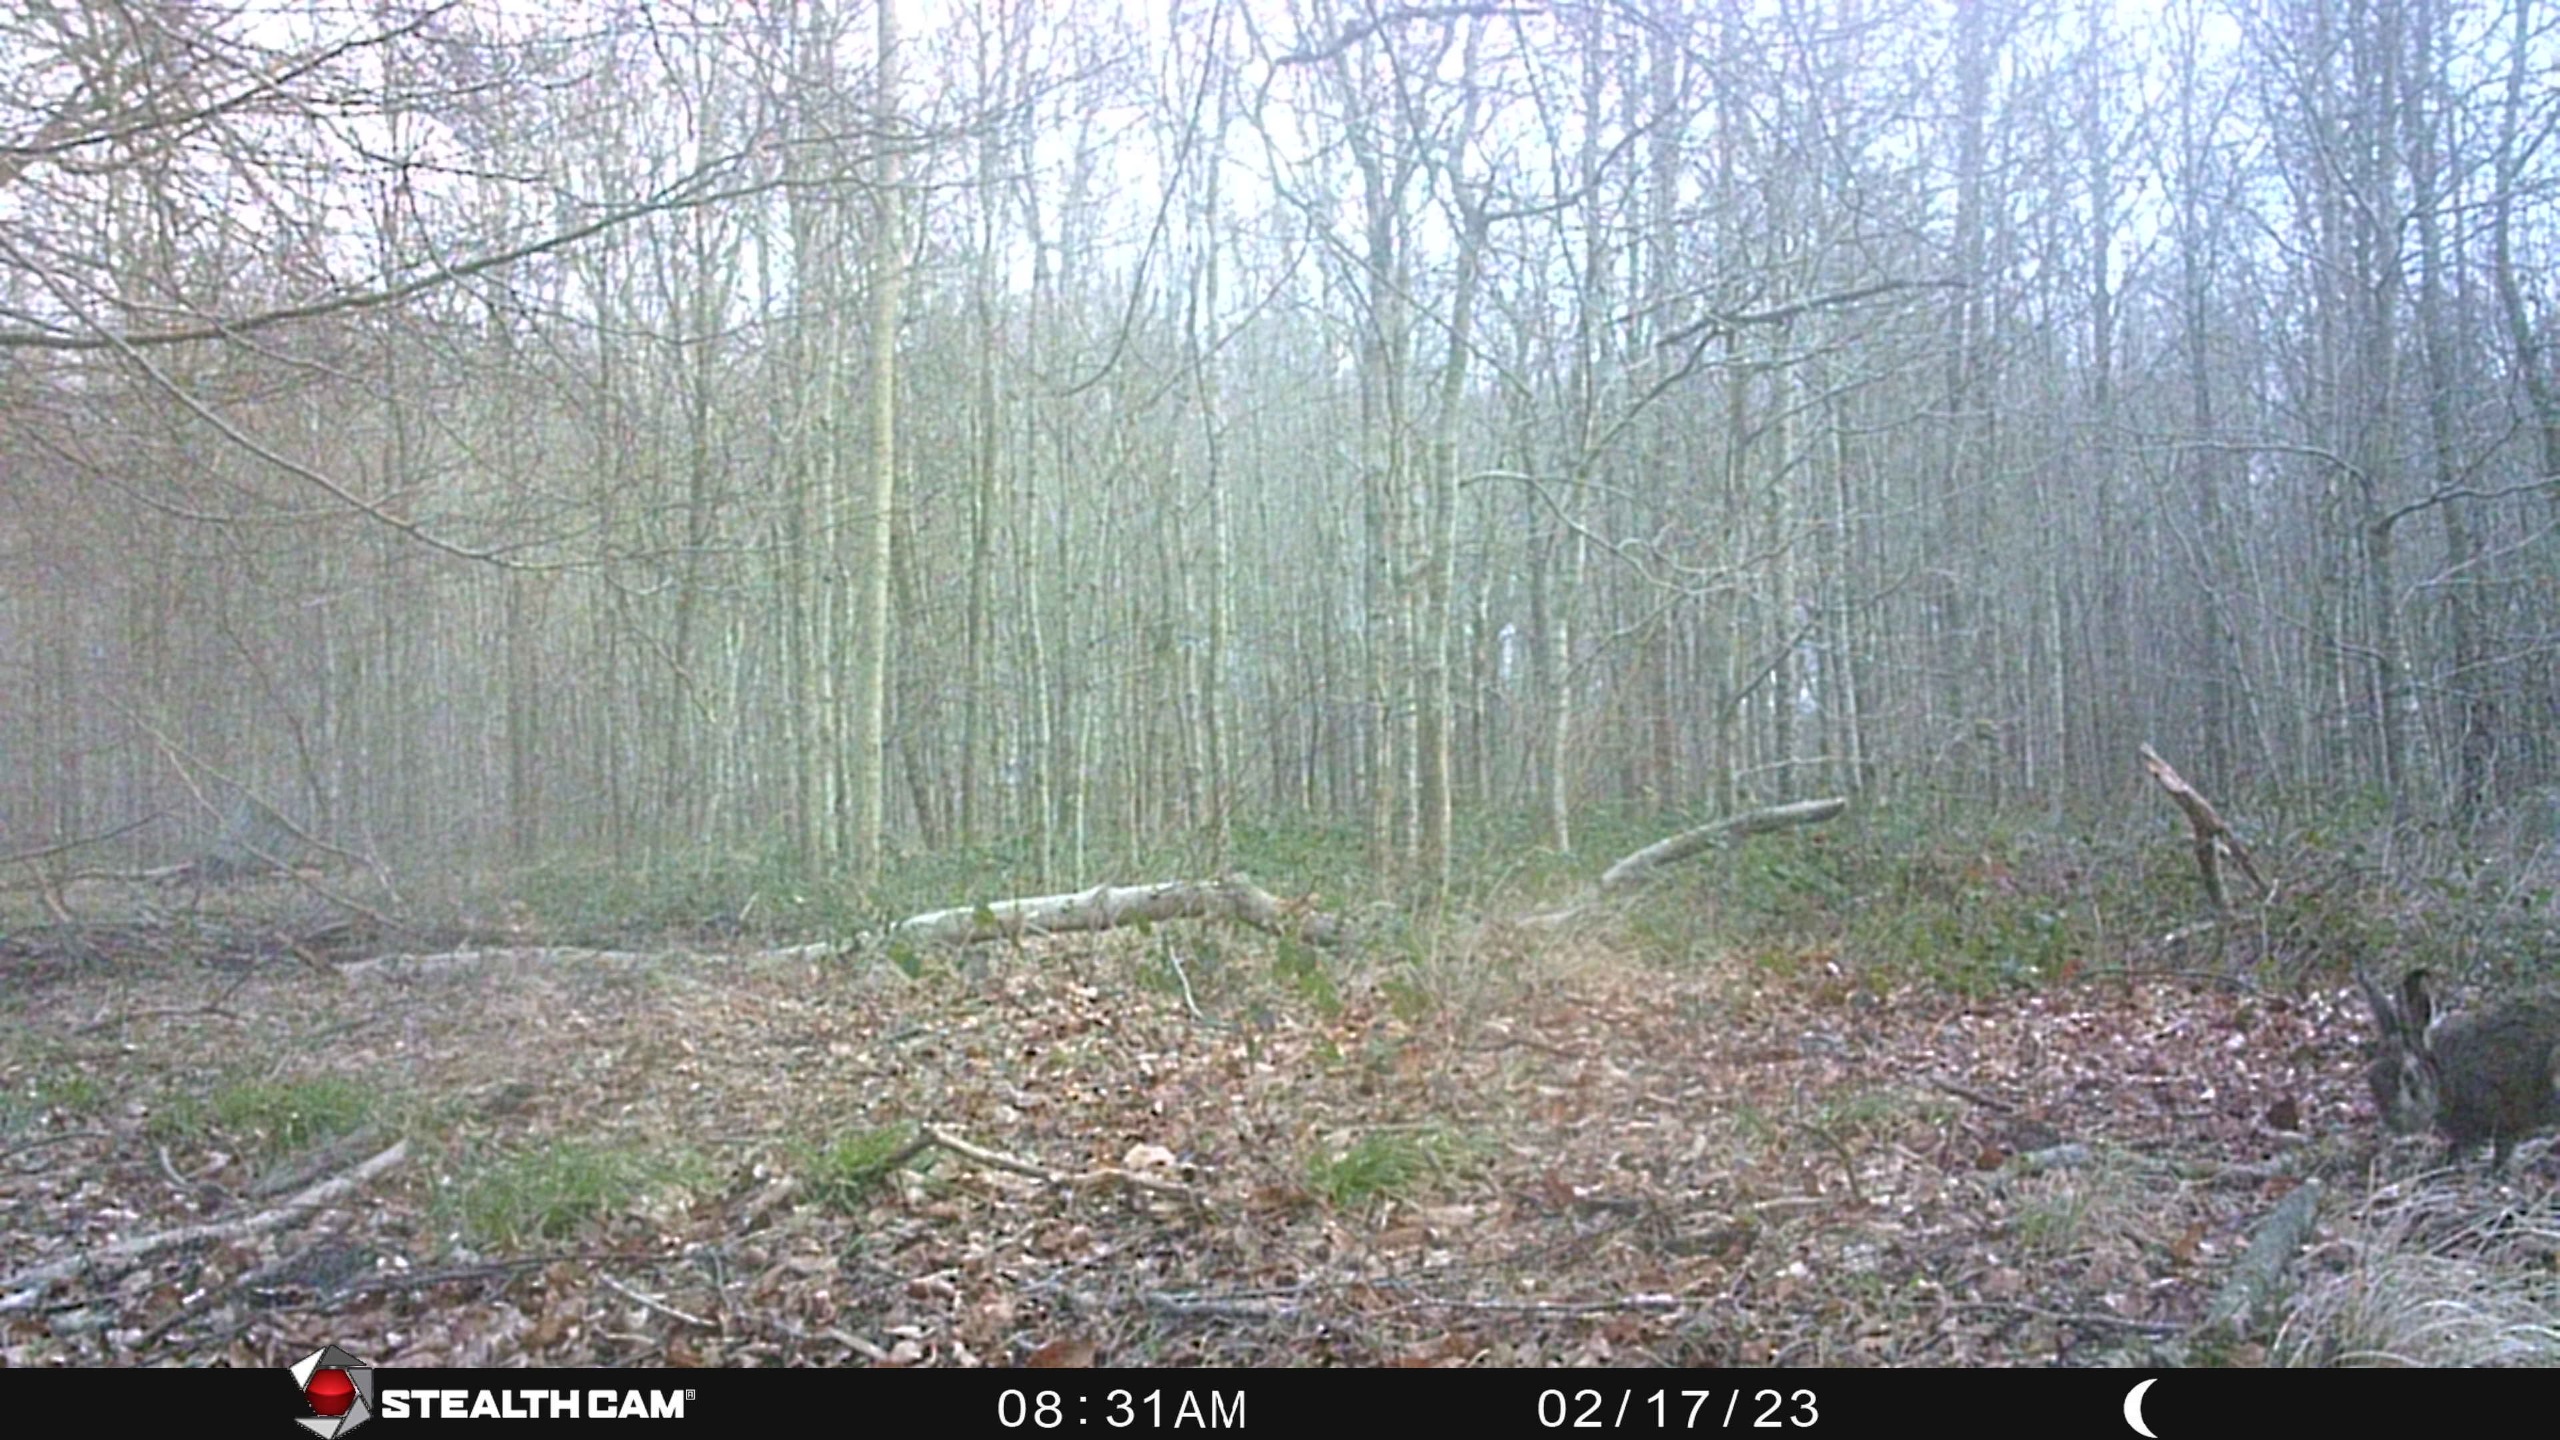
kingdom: Animalia
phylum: Chordata
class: Mammalia
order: Lagomorpha
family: Leporidae
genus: Lepus
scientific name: Lepus europaeus
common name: Hare
